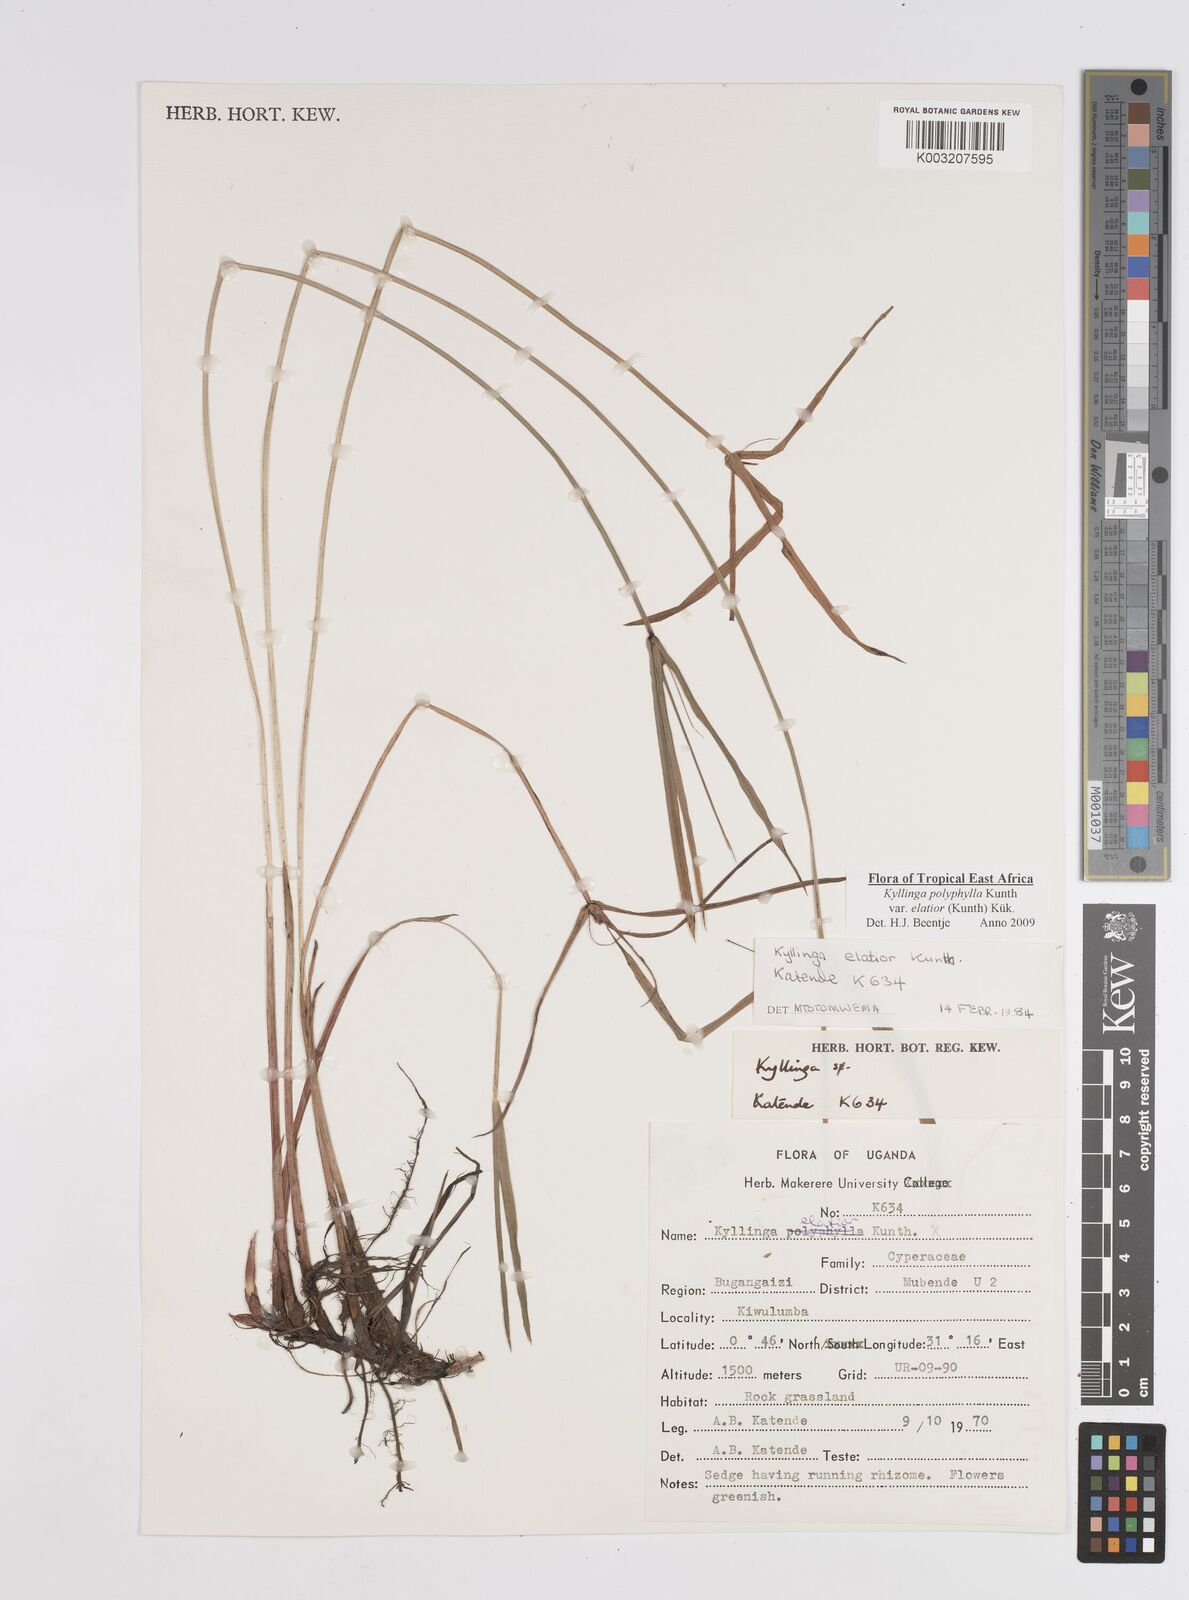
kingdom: Plantae
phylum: Tracheophyta
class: Liliopsida
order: Poales
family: Cyperaceae
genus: Cyperus
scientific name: Cyperus
